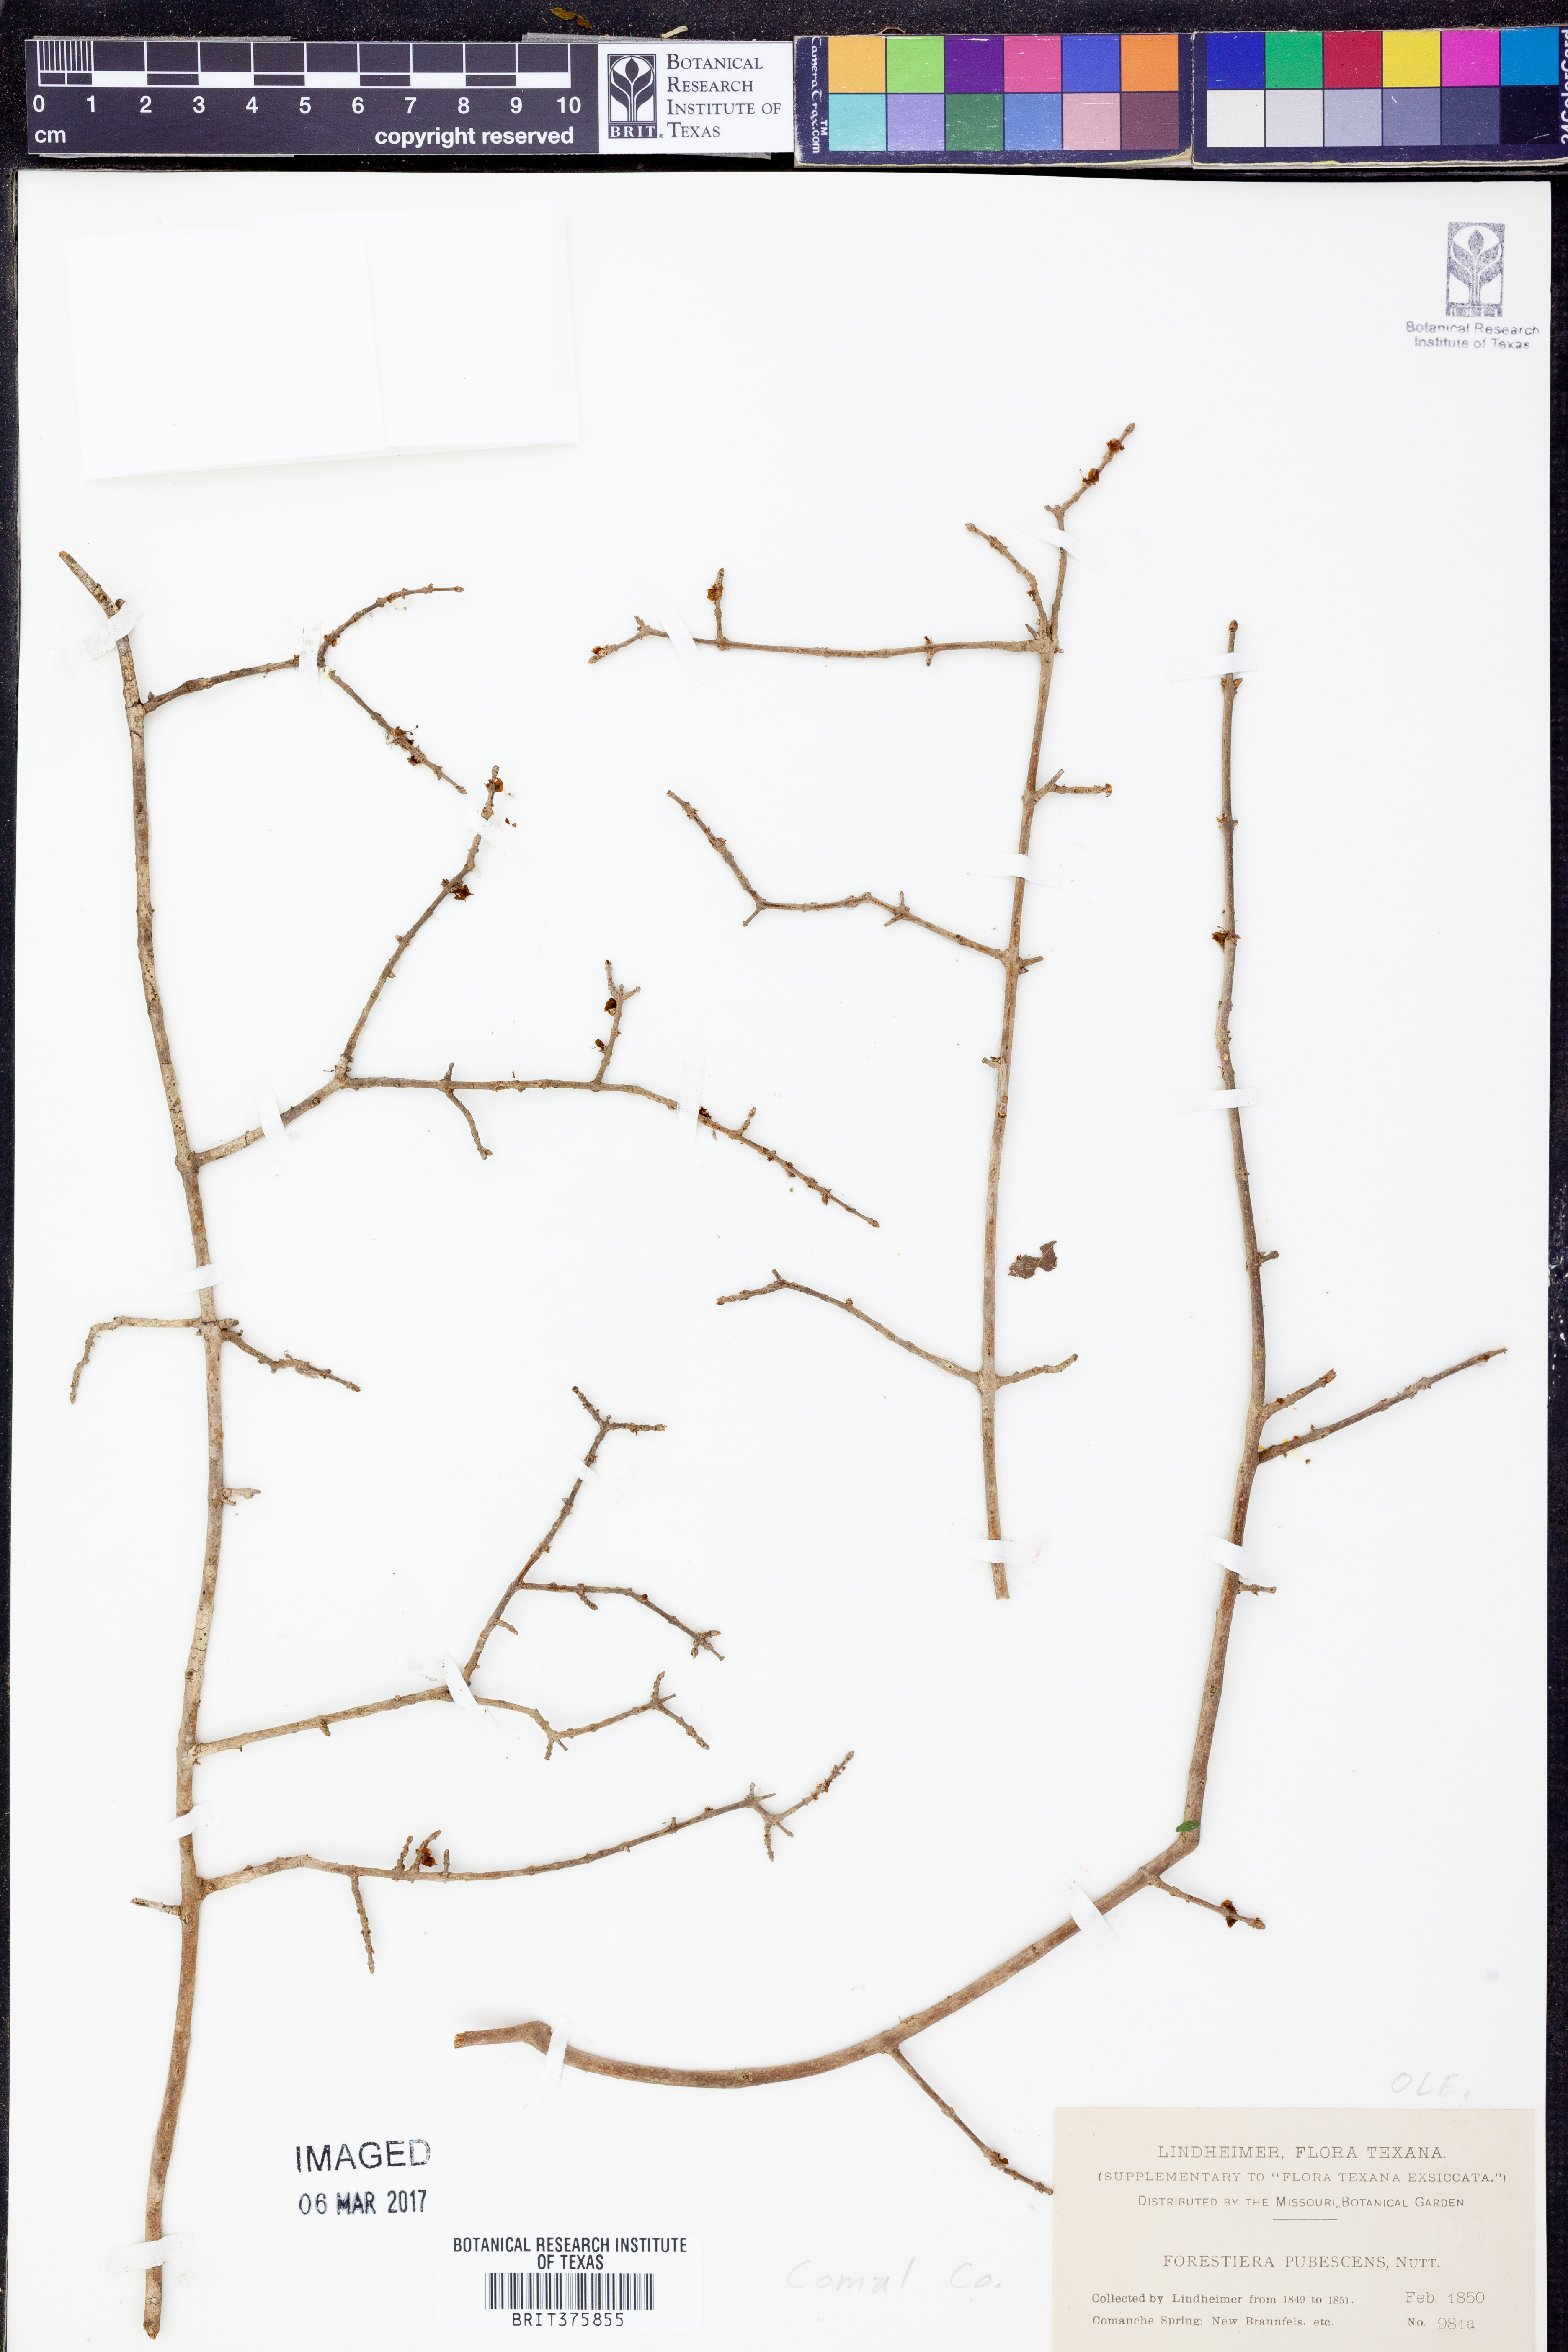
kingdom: Plantae
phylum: Tracheophyta
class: Magnoliopsida
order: Lamiales
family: Oleaceae
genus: Forestiera
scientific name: Forestiera pubescens
